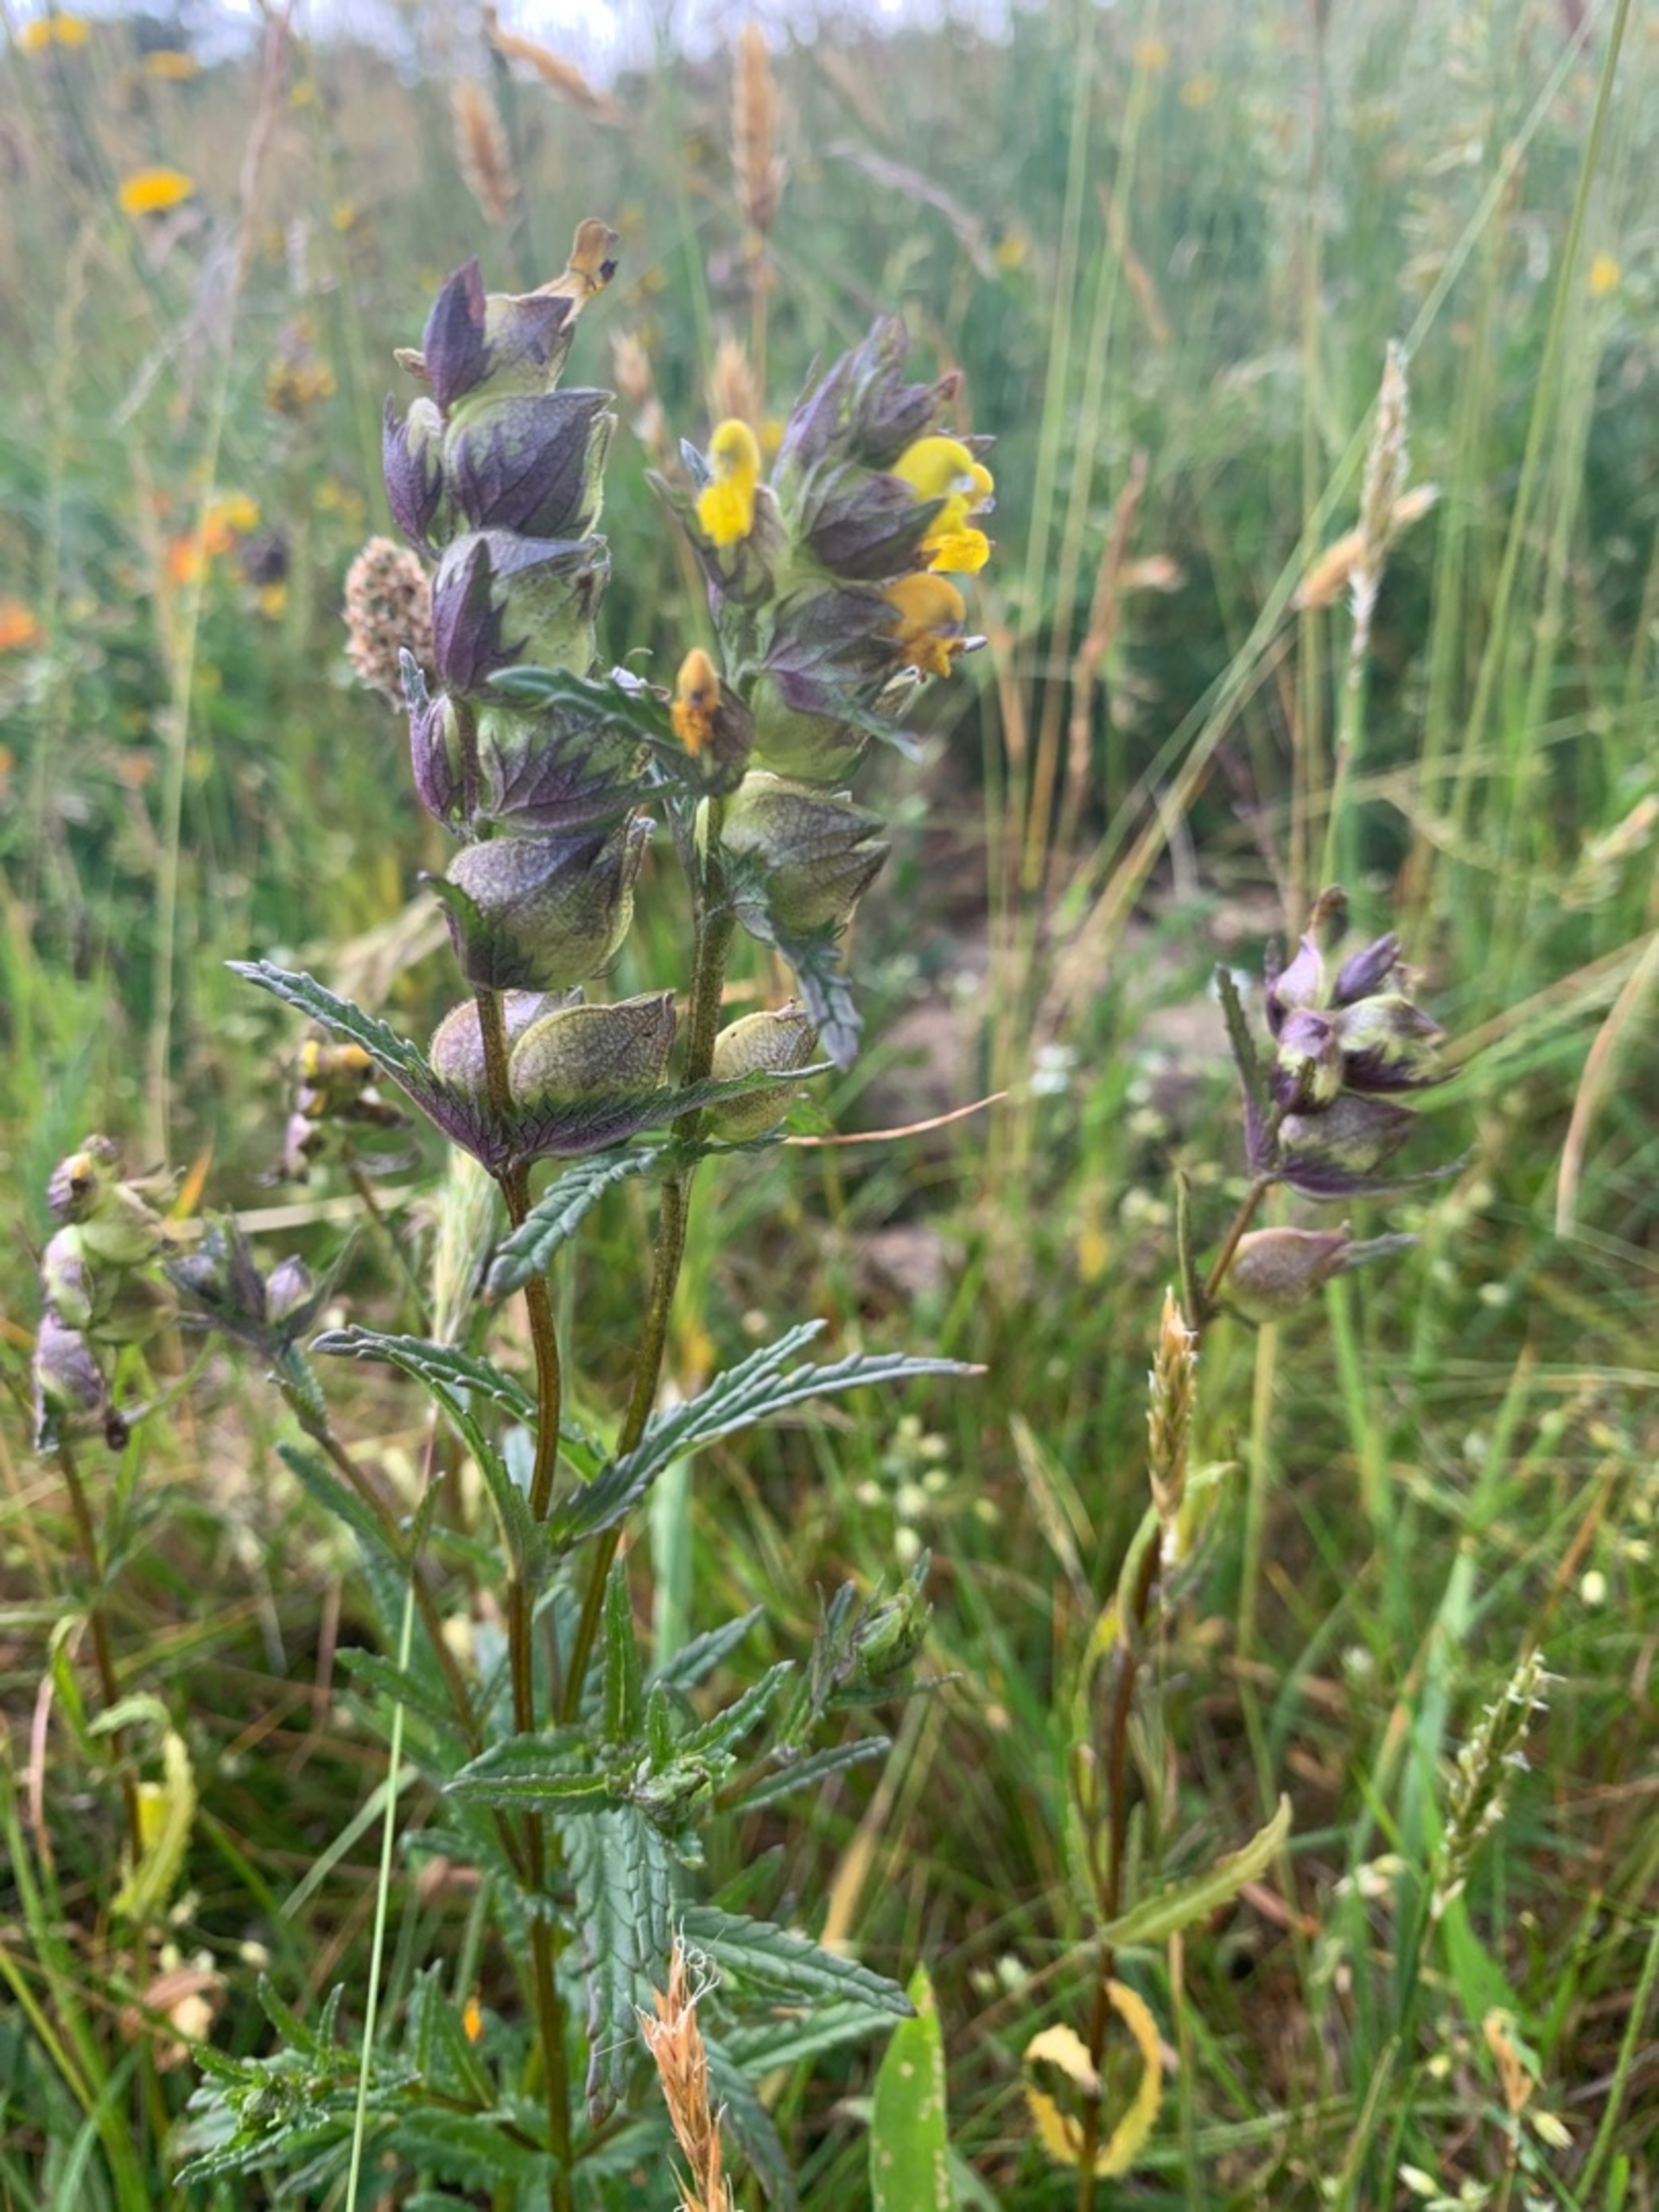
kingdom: Plantae
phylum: Tracheophyta
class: Magnoliopsida
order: Lamiales
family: Orobanchaceae
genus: Rhinanthus
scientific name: Rhinanthus
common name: Stor skjaller
